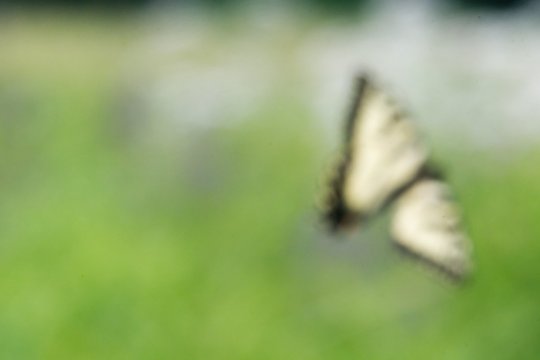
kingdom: Animalia
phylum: Arthropoda
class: Insecta
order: Lepidoptera
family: Papilionidae
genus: Pterourus
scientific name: Pterourus
